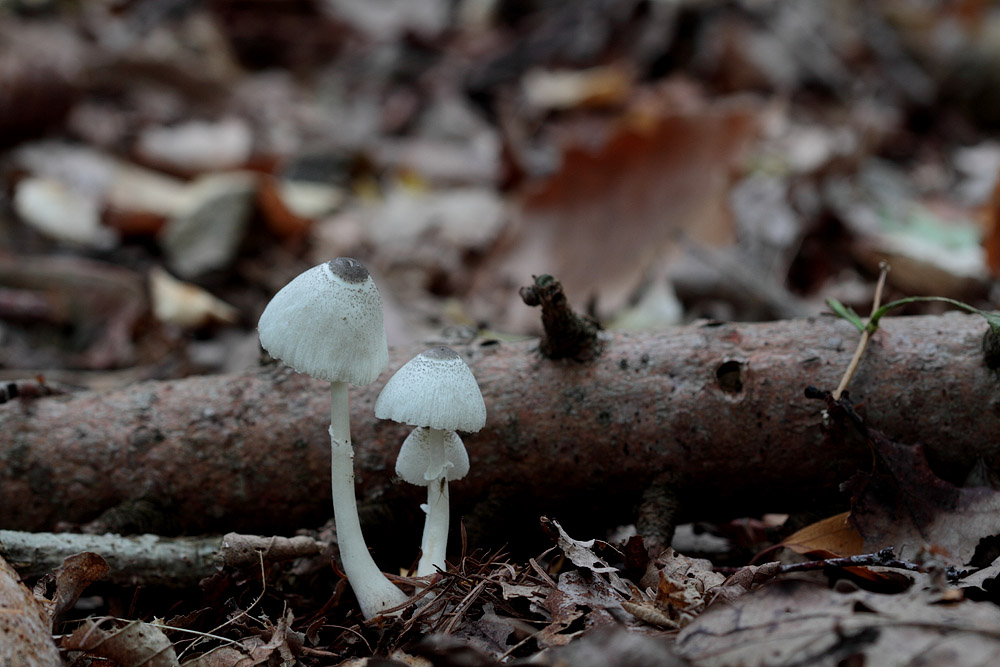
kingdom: Fungi
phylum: Basidiomycota
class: Agaricomycetes
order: Agaricales
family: Agaricaceae
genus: Leucocoprinus
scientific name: Leucocoprinus brebissonii
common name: gråsort silkehat
